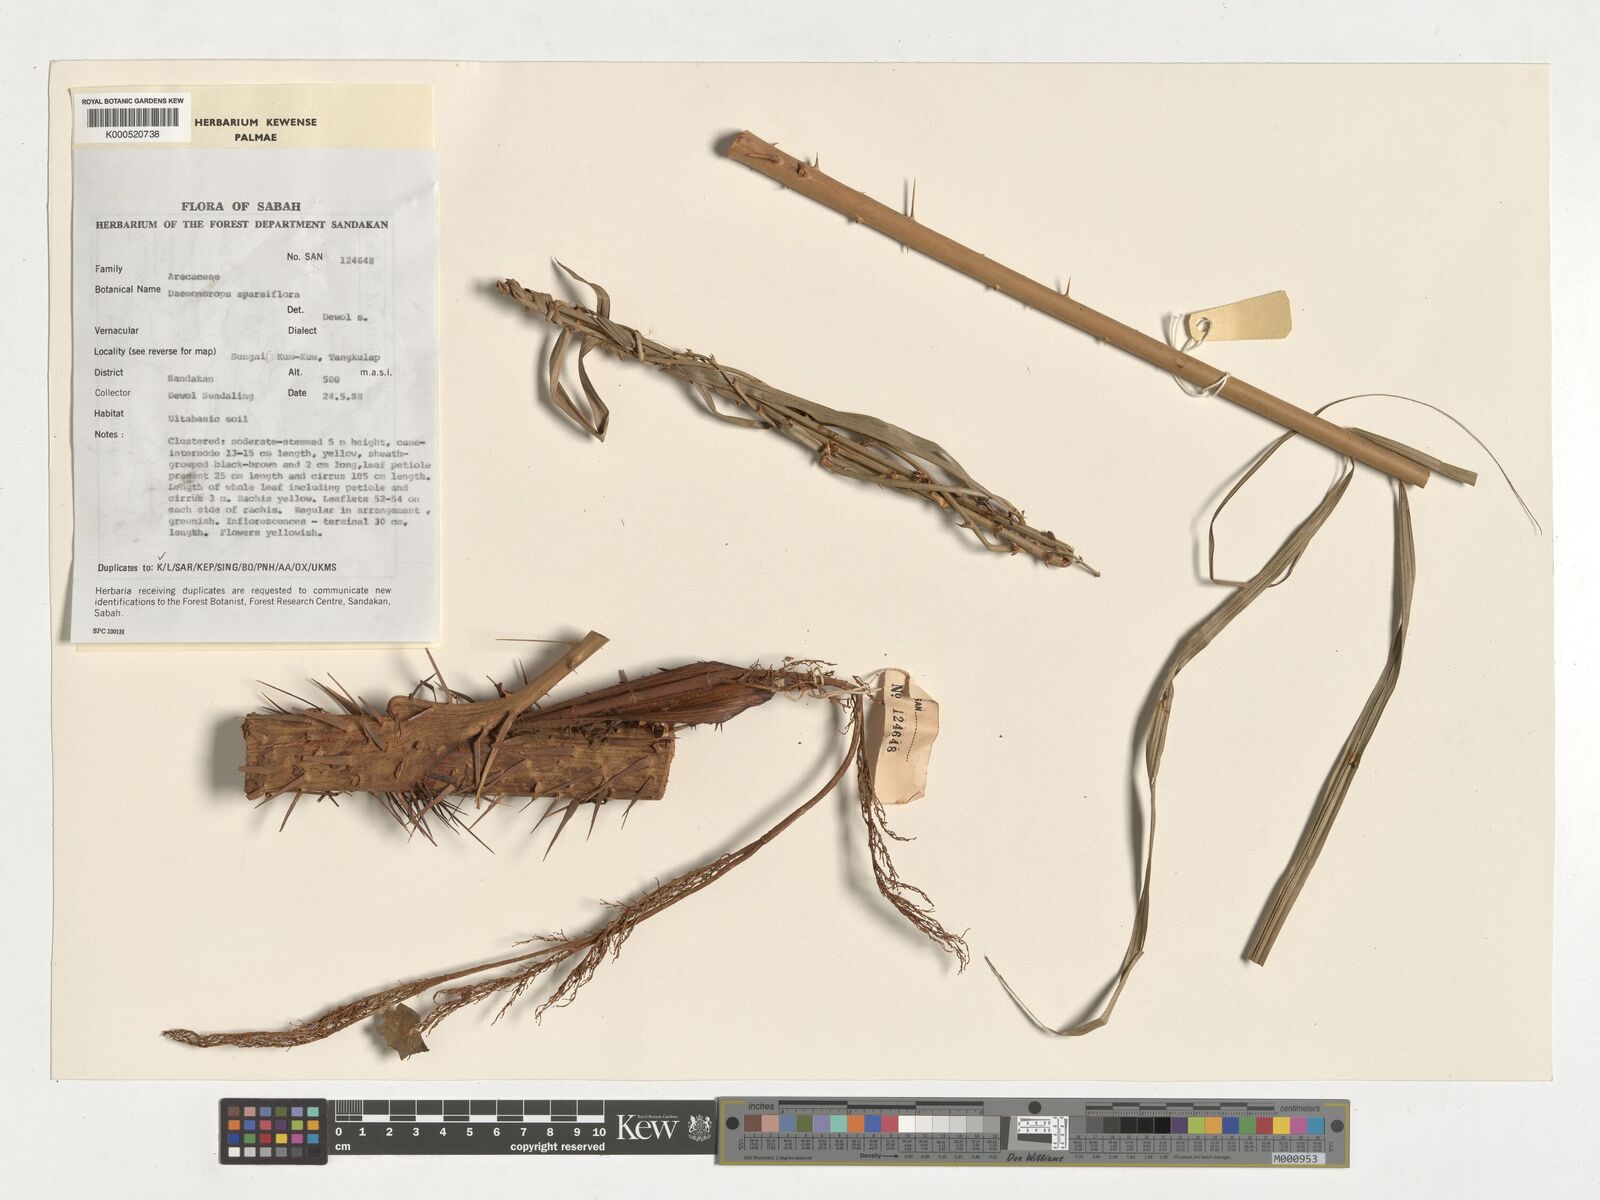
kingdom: Plantae
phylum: Tracheophyta
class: Liliopsida
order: Arecales
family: Arecaceae
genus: Calamus
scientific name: Calamus hirsutus
